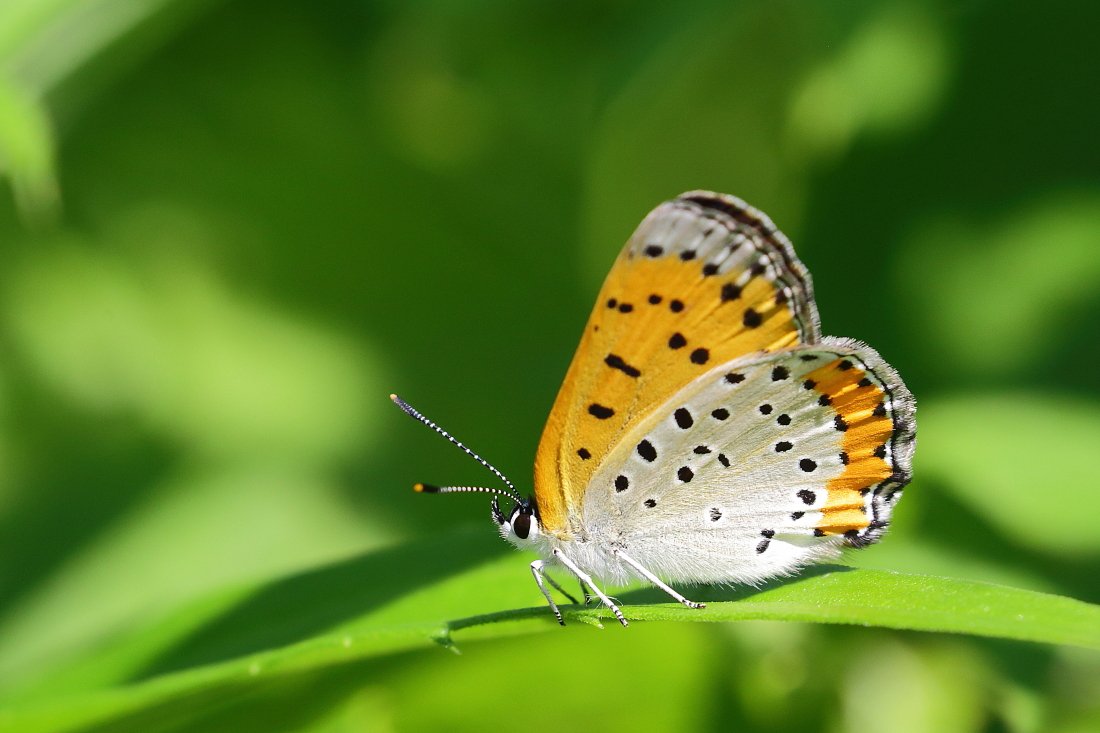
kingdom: Animalia
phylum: Arthropoda
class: Insecta
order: Lepidoptera
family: Sesiidae
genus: Sesia
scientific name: Sesia Lycaena hyllus
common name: Bronze Copper
